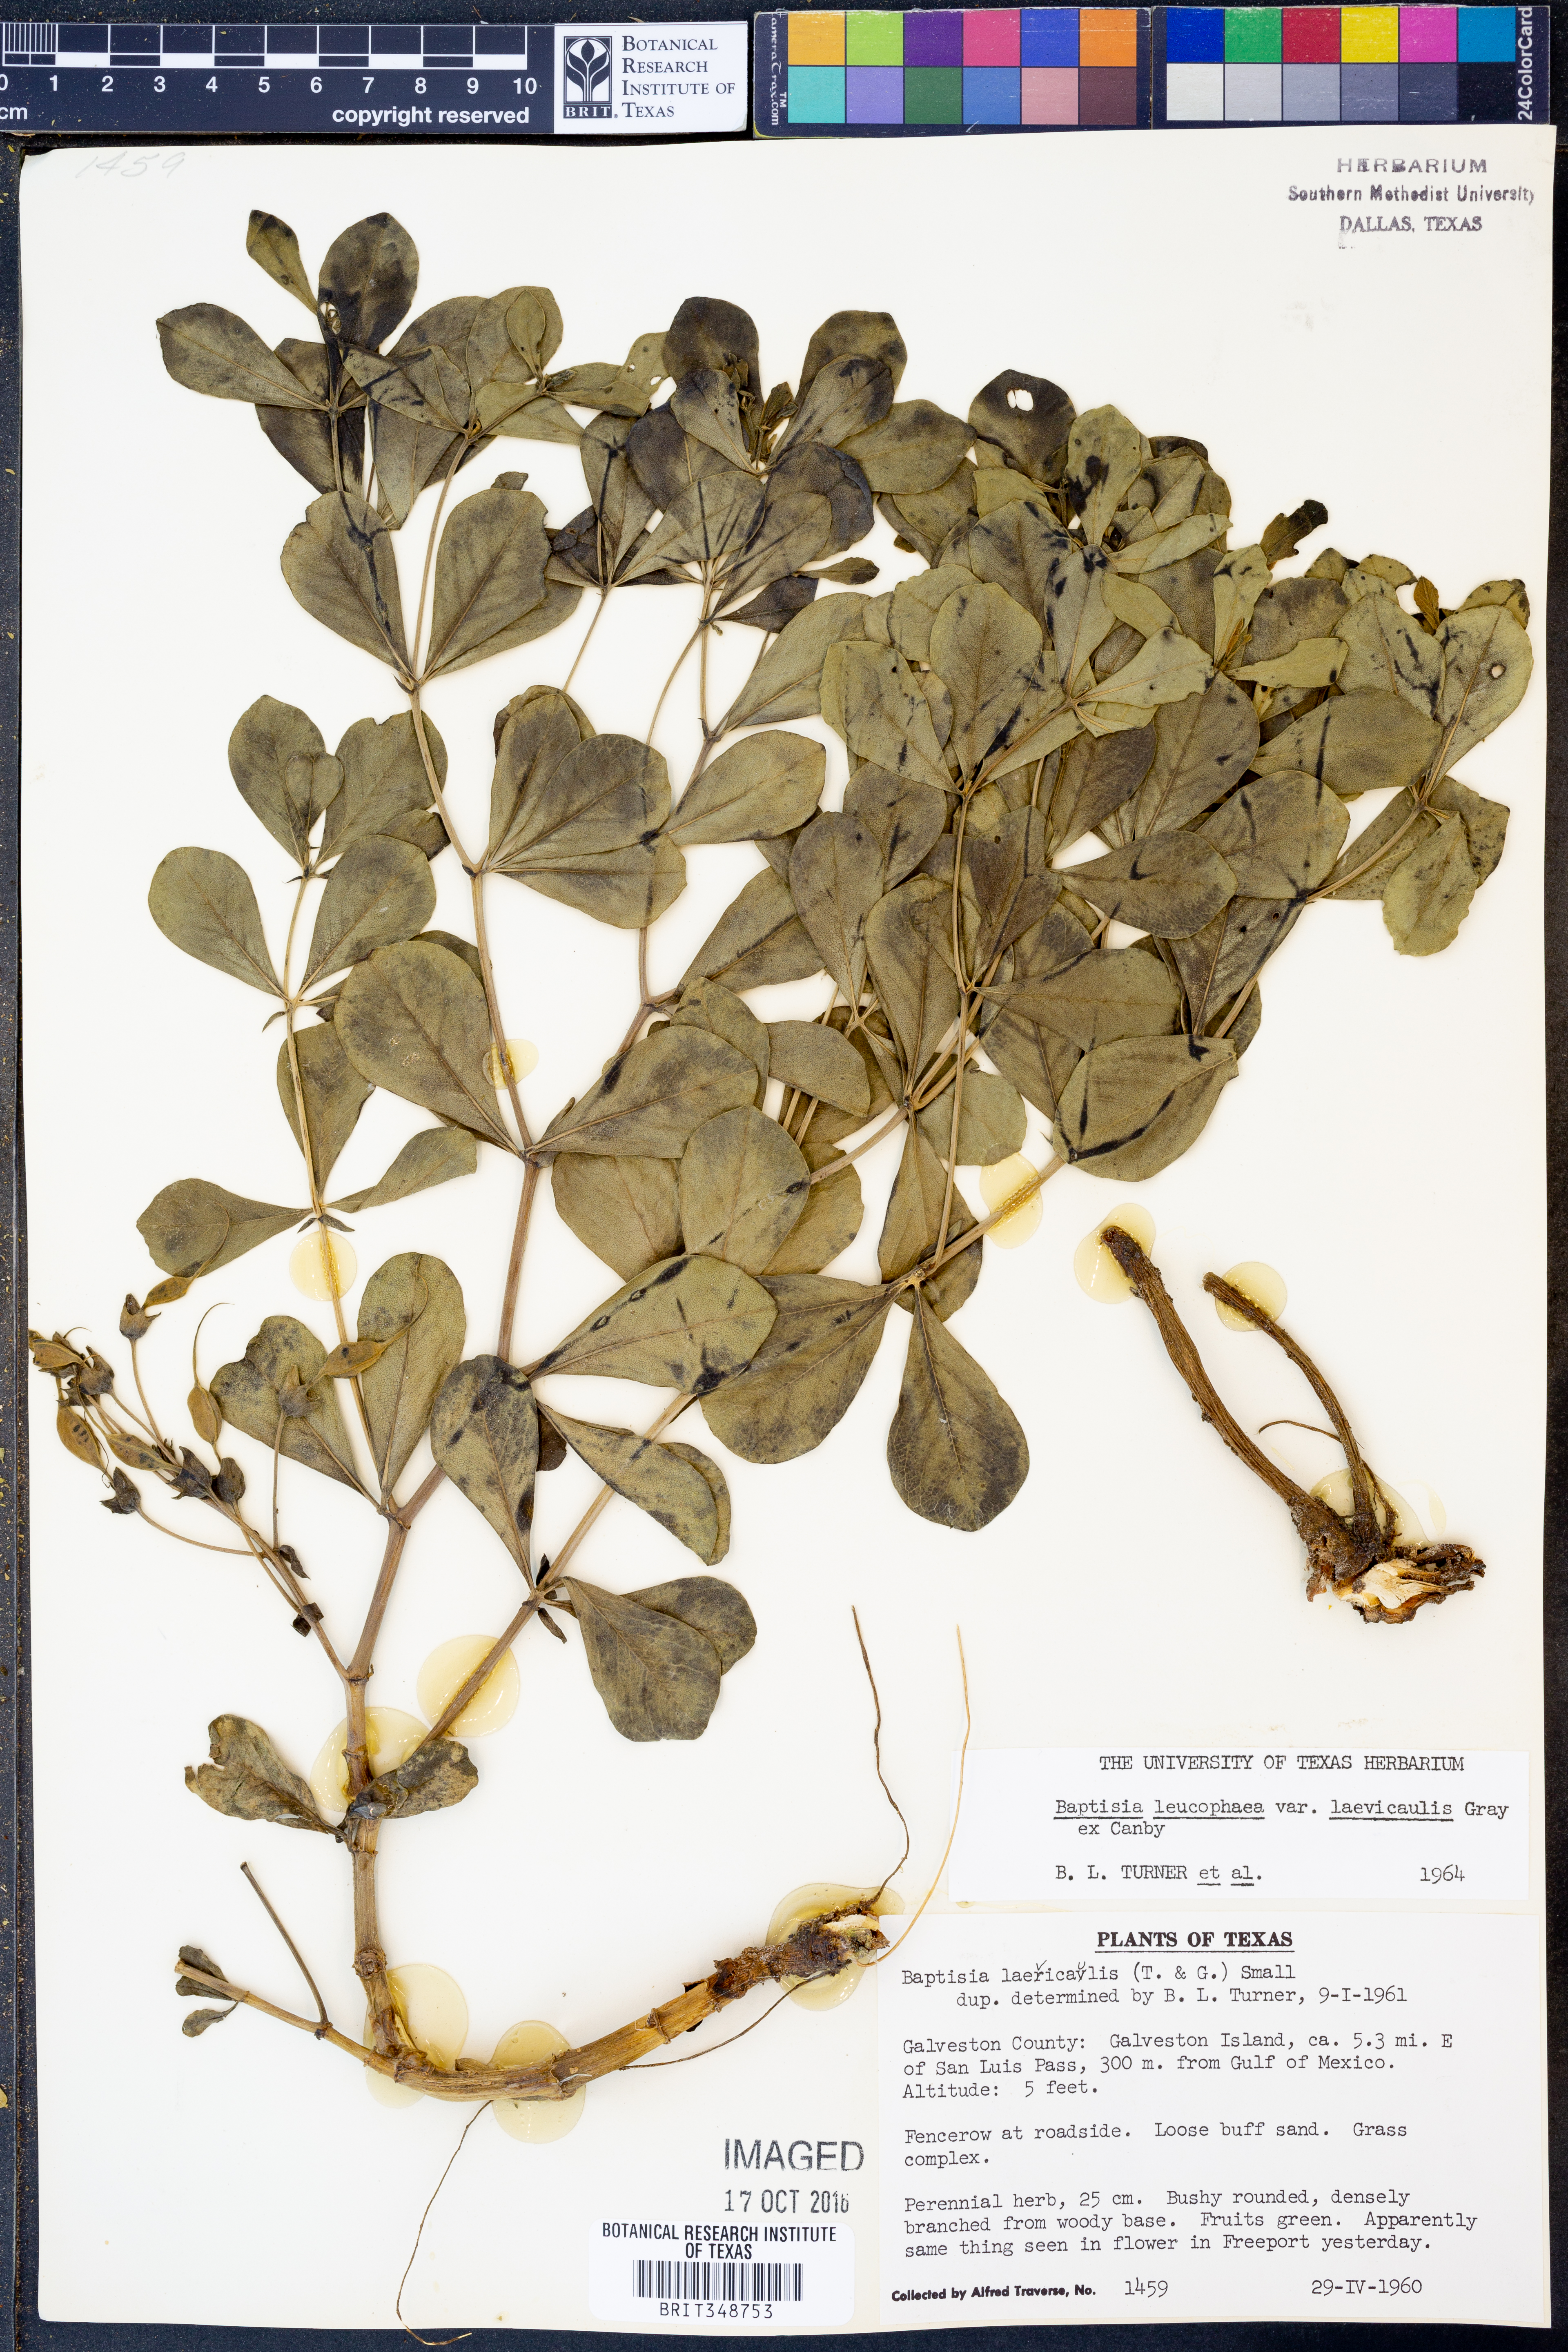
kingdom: Plantae
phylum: Tracheophyta
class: Magnoliopsida
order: Fabales
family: Fabaceae
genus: Baptisia
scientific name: Baptisia bracteata
